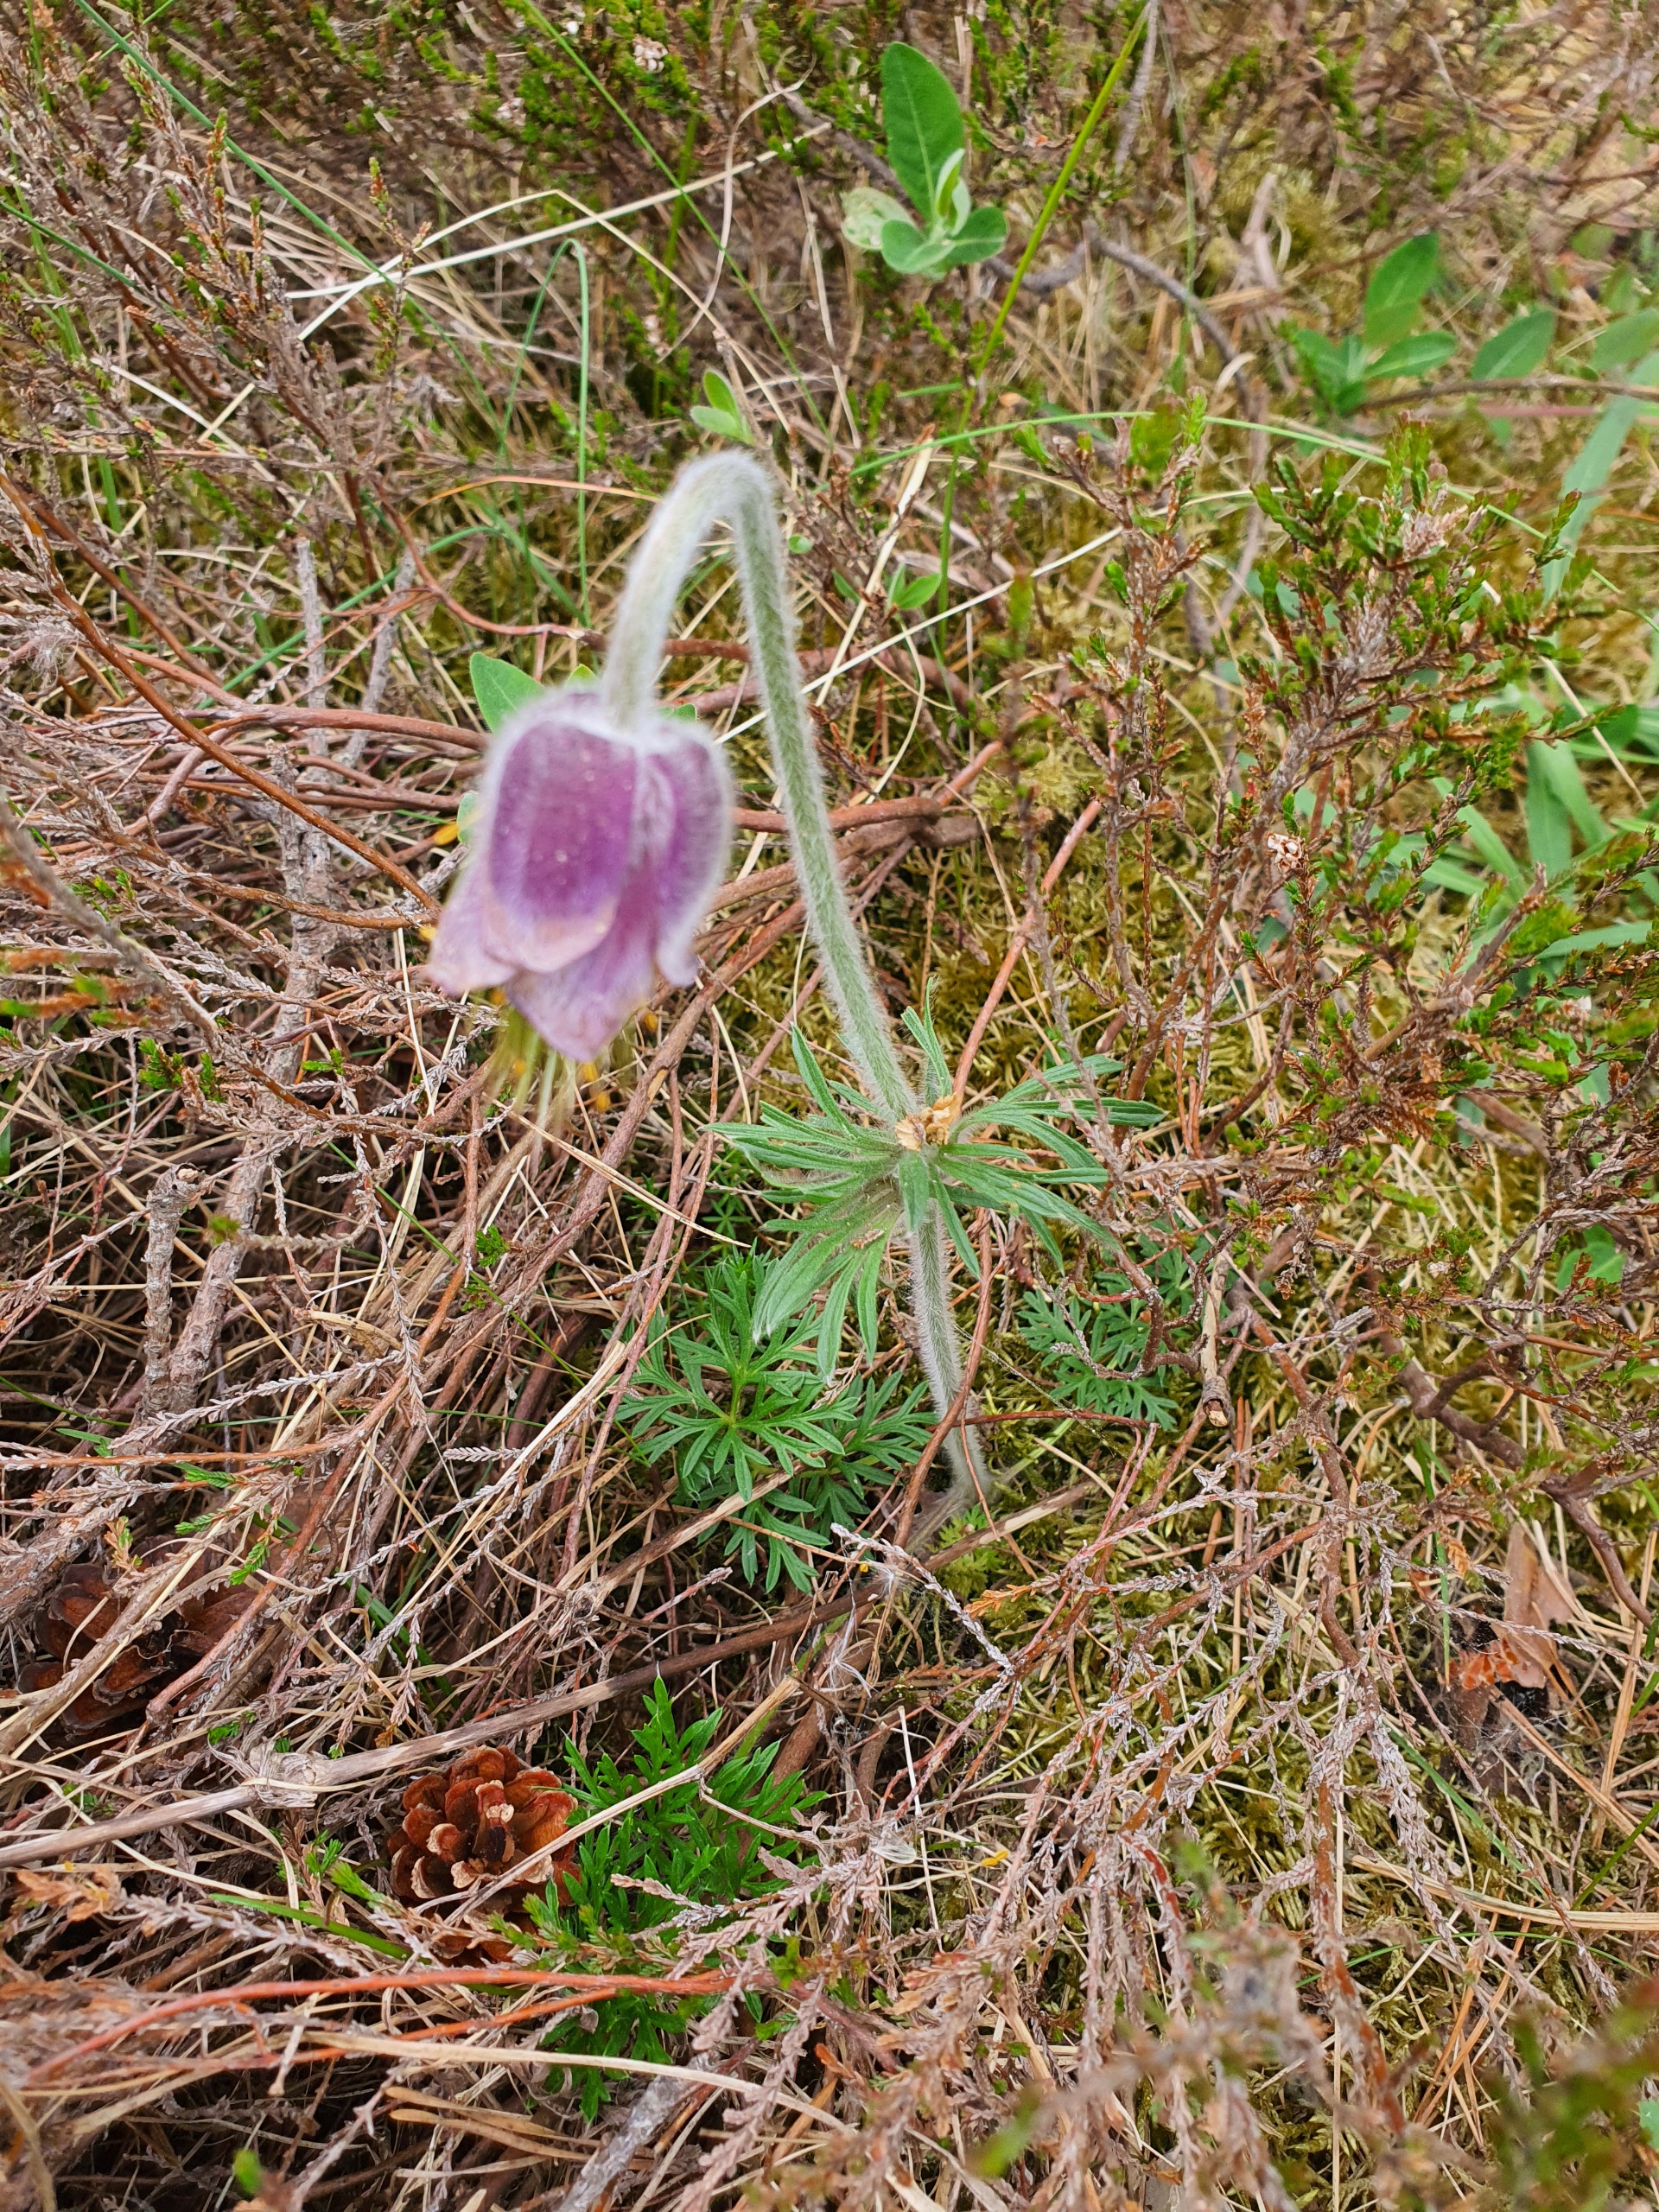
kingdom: Plantae
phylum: Tracheophyta
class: Magnoliopsida
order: Ranunculales
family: Ranunculaceae
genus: Pulsatilla
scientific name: Pulsatilla pratensis
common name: Nikkende kobjælde
